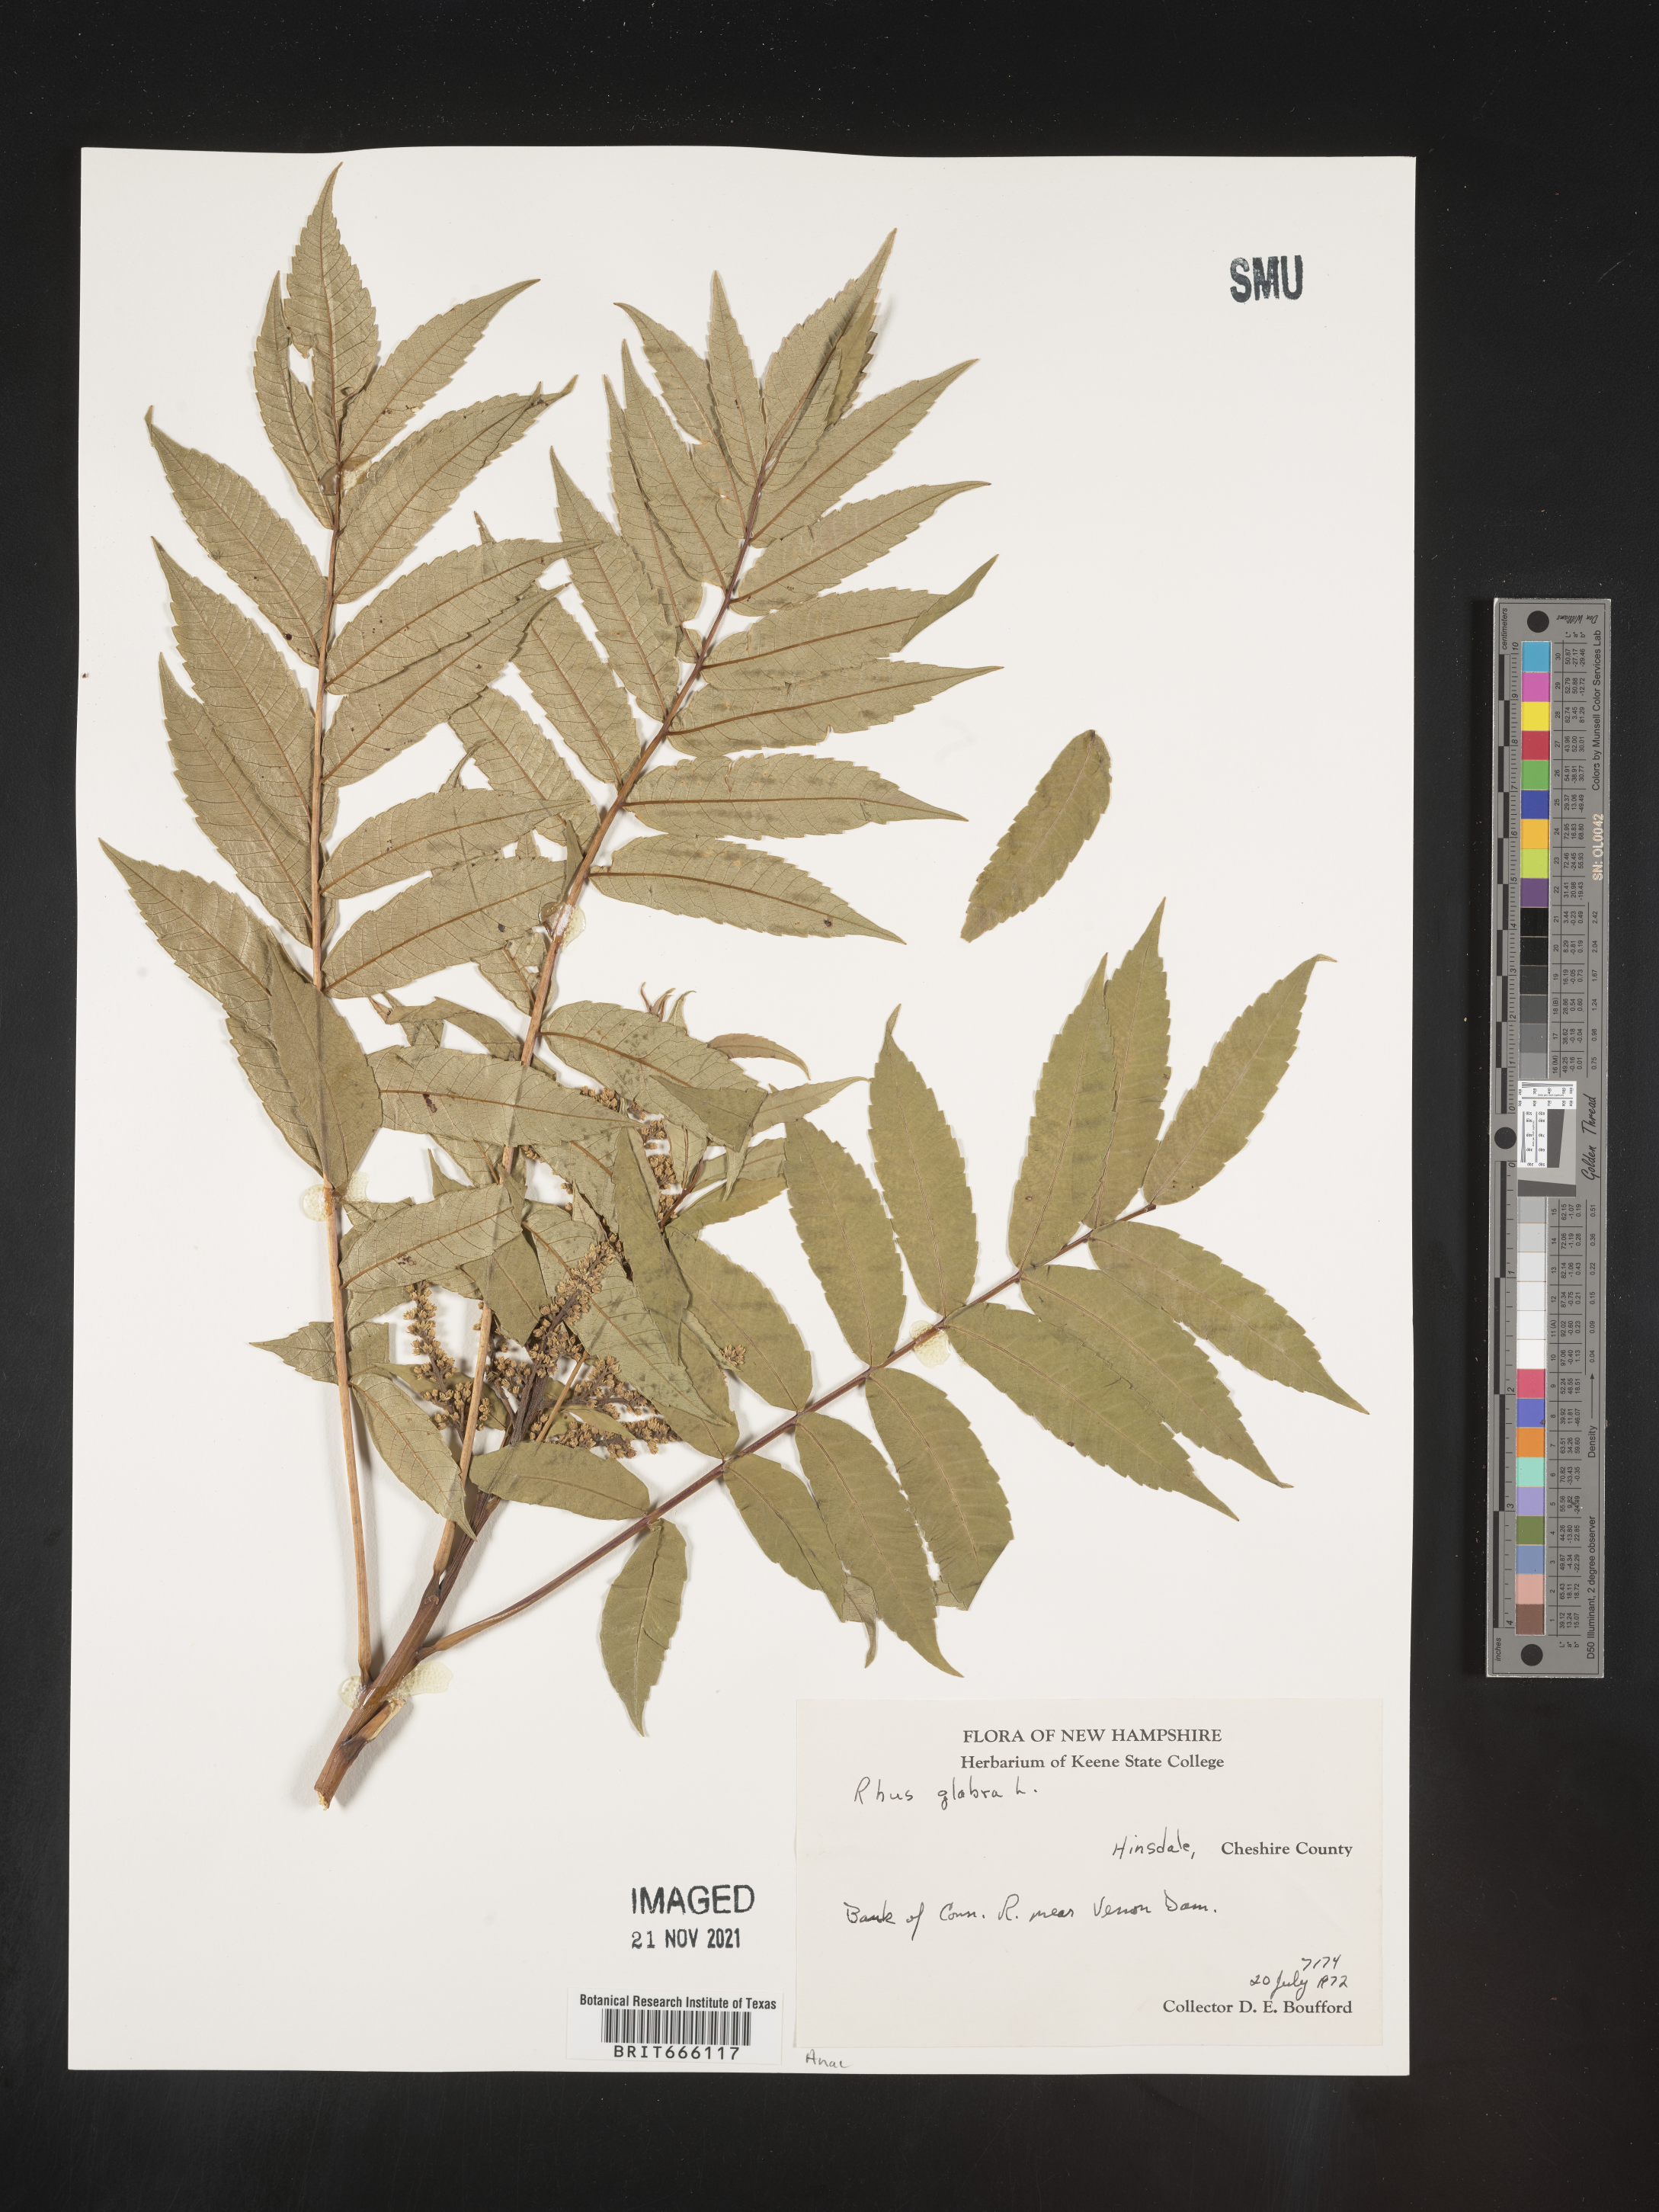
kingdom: Plantae
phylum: Tracheophyta
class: Magnoliopsida
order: Sapindales
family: Anacardiaceae
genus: Rhus
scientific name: Rhus glabra
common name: Scarlet sumac
